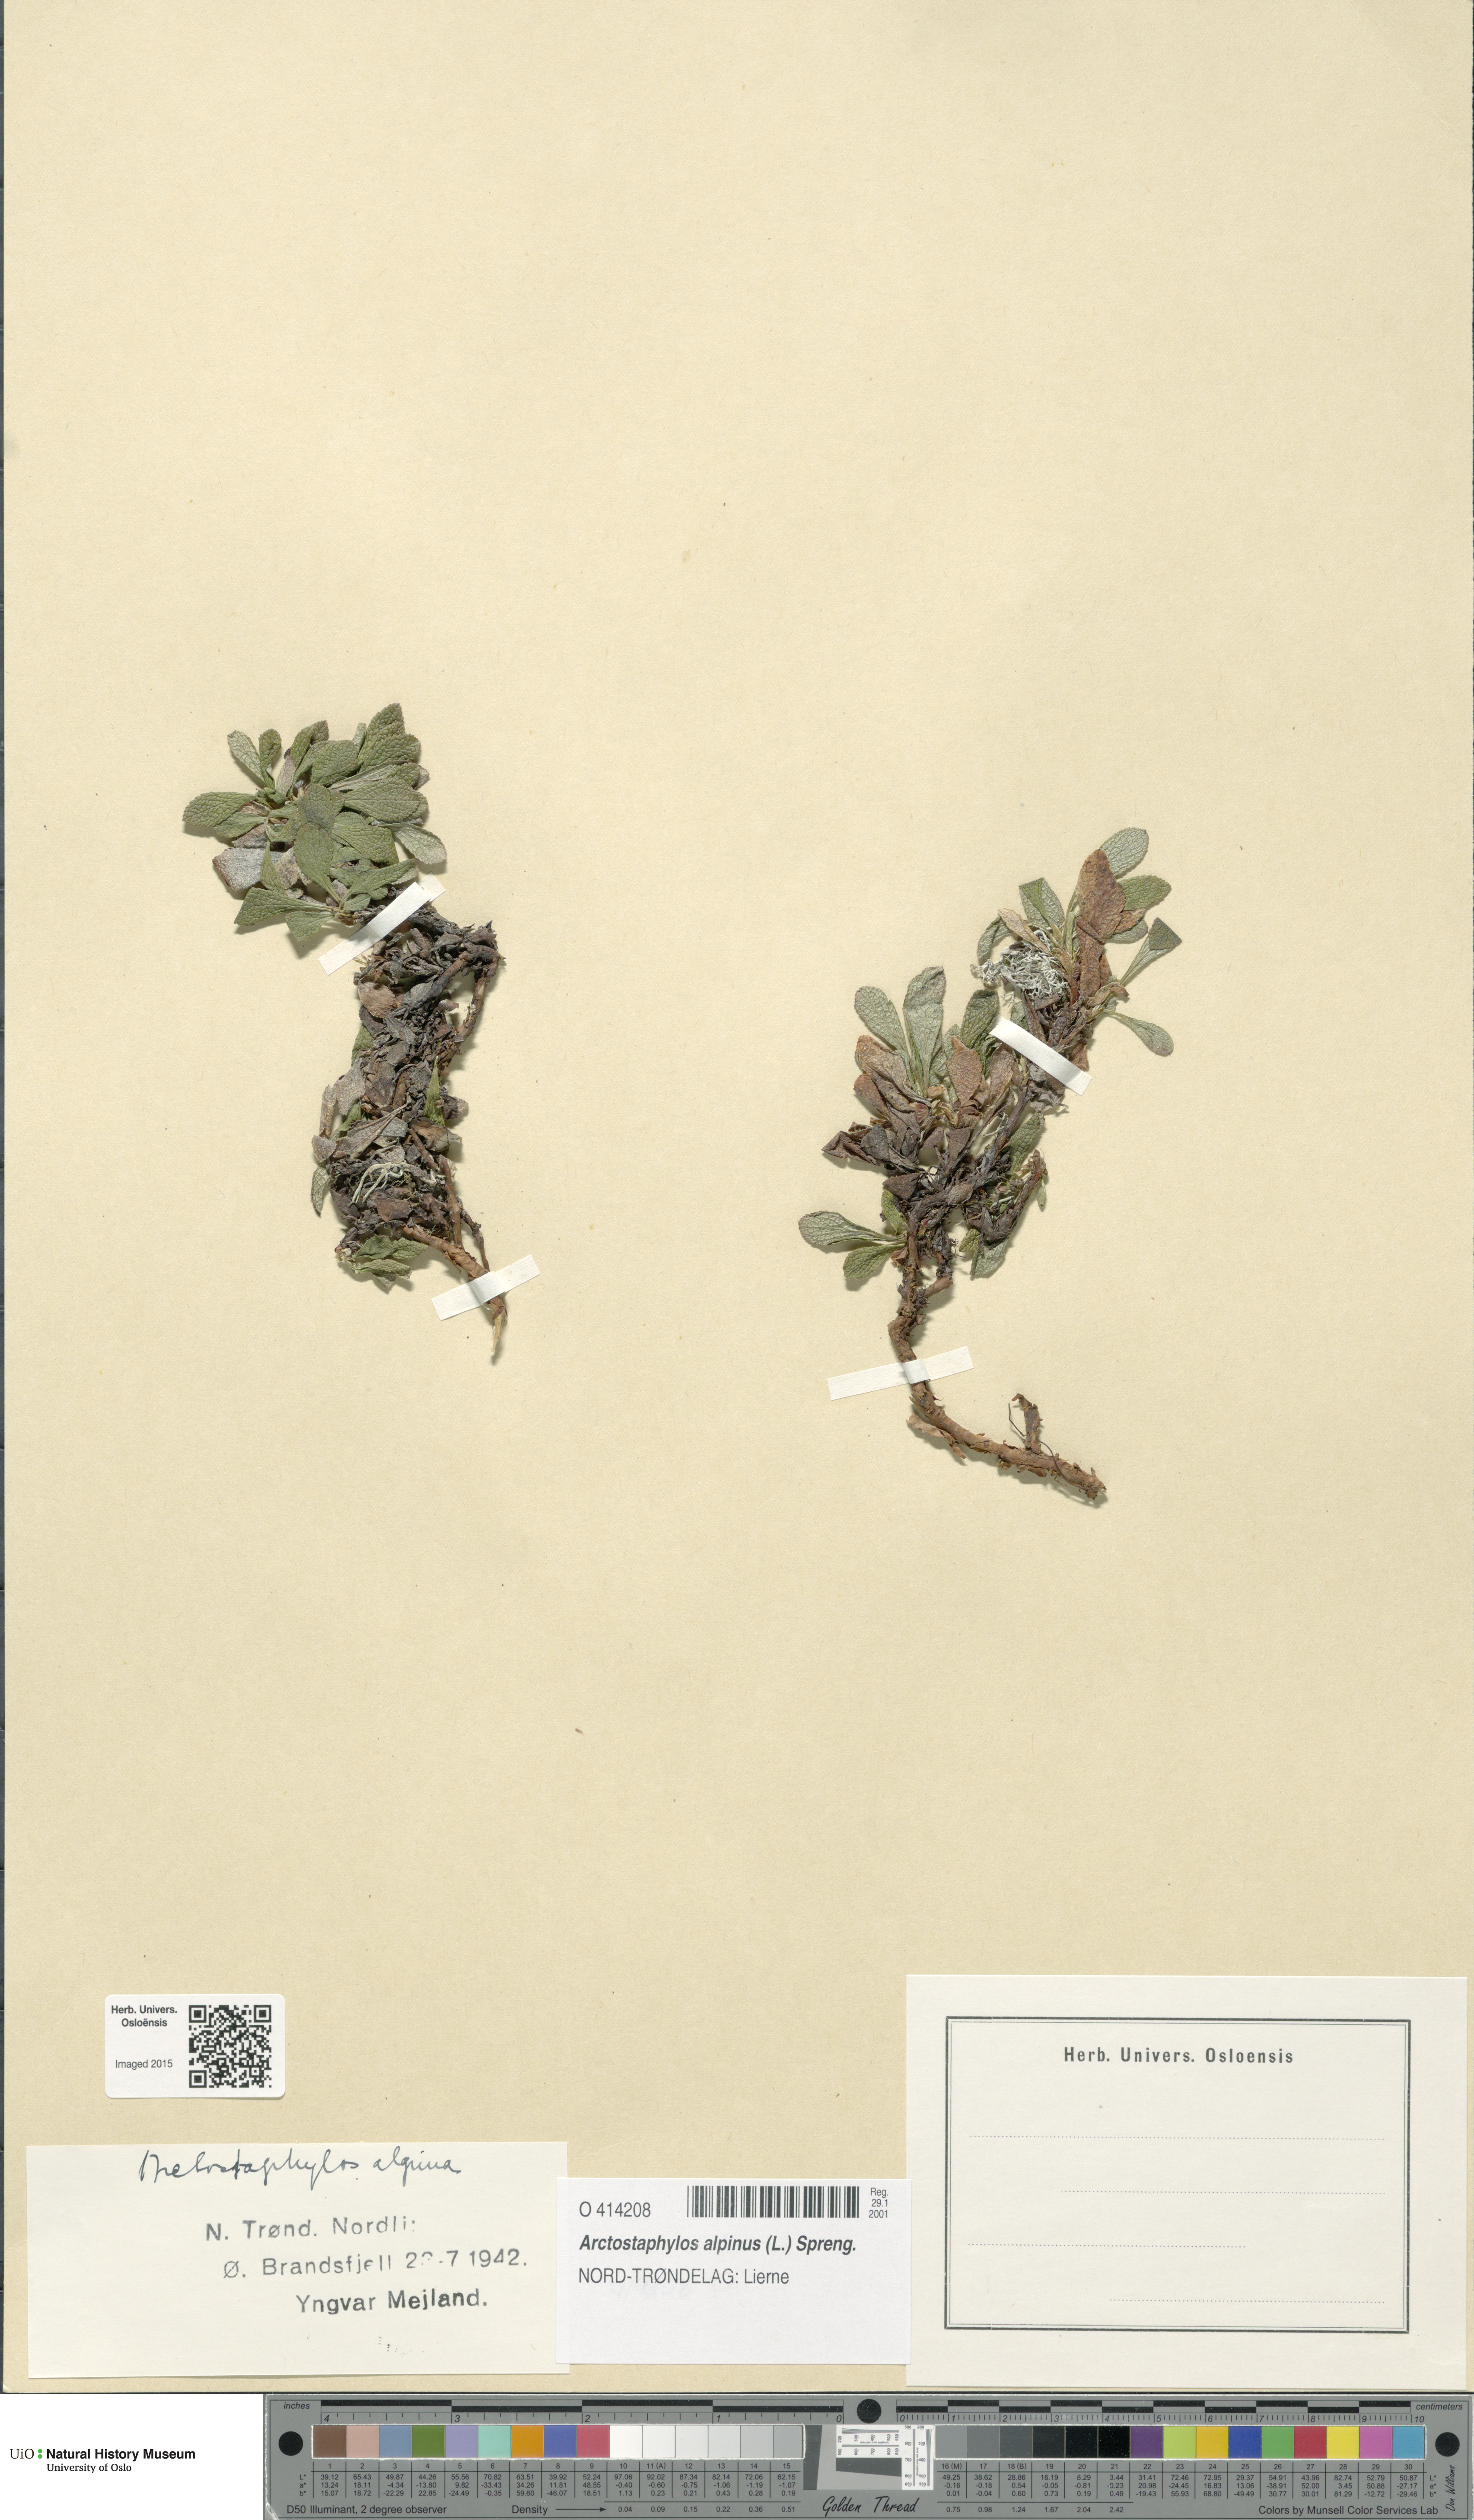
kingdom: Plantae
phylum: Tracheophyta
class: Magnoliopsida
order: Ericales
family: Ericaceae
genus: Arctostaphylos
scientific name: Arctostaphylos alpinus
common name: Alpine bearberry
